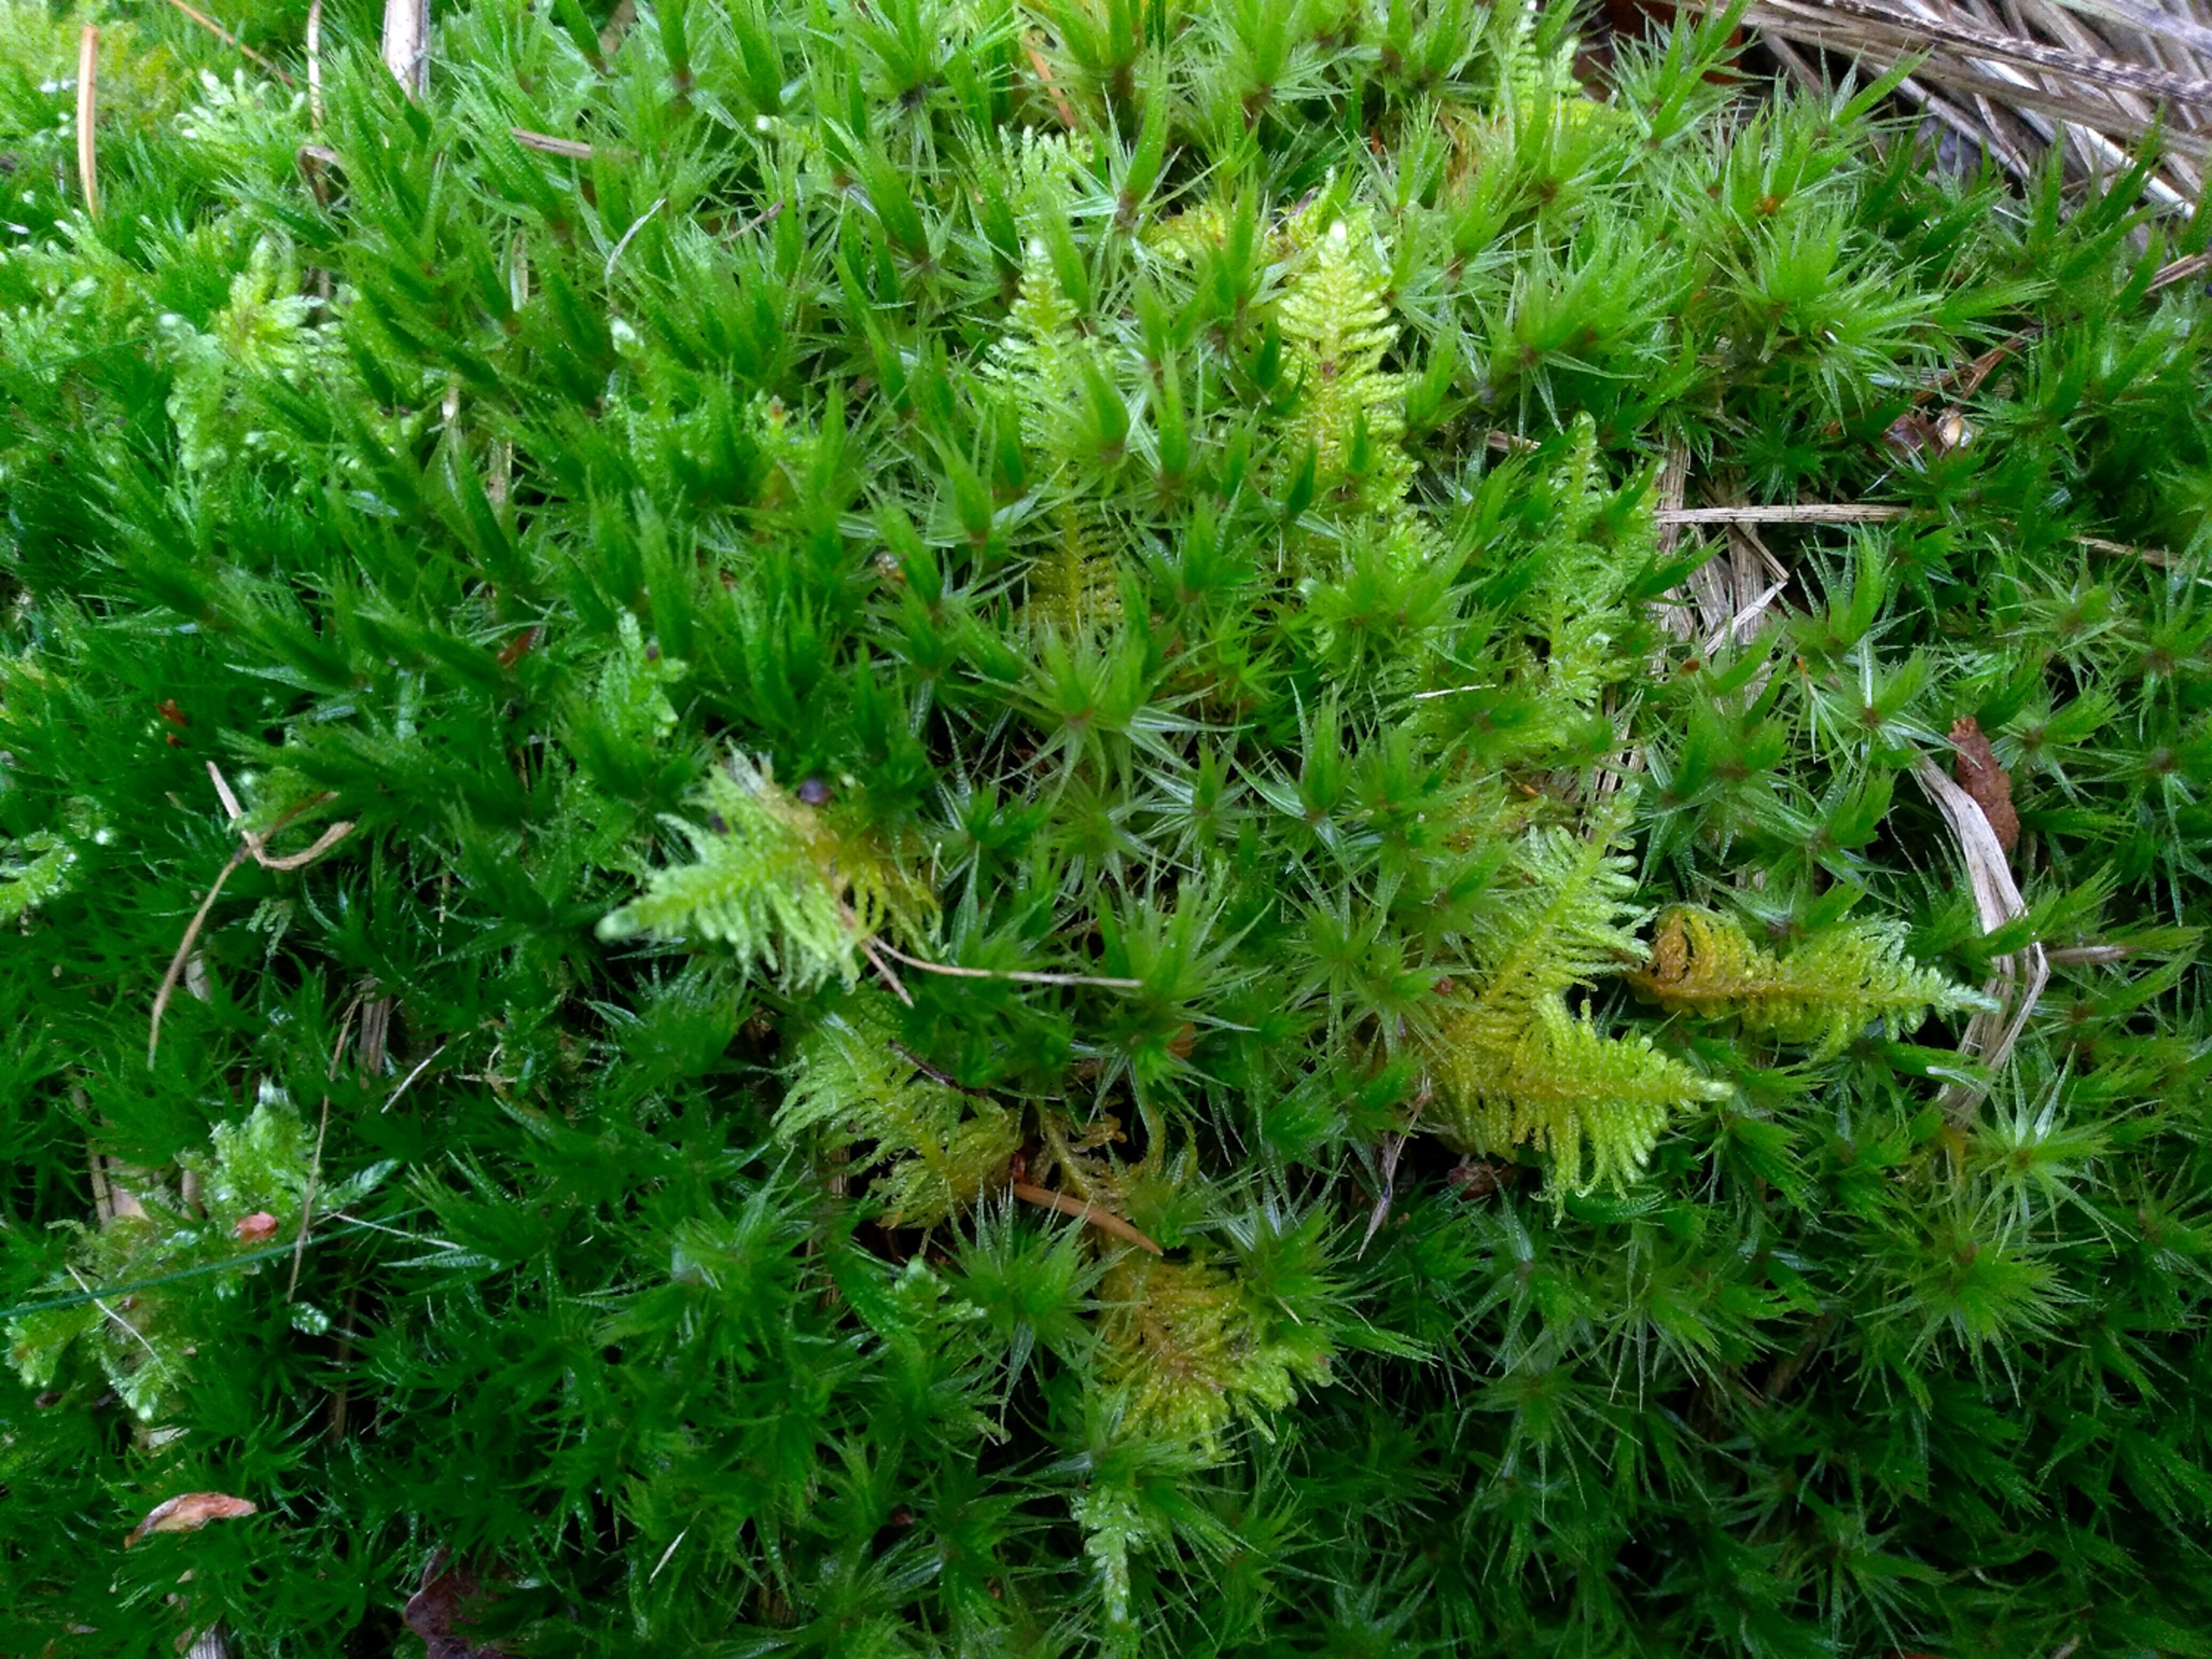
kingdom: Plantae
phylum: Bryophyta
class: Bryopsida
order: Hypnales
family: Pylaisiaceae
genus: Ptilium
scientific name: Ptilium crista-castrensis
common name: Fjer-kammos
